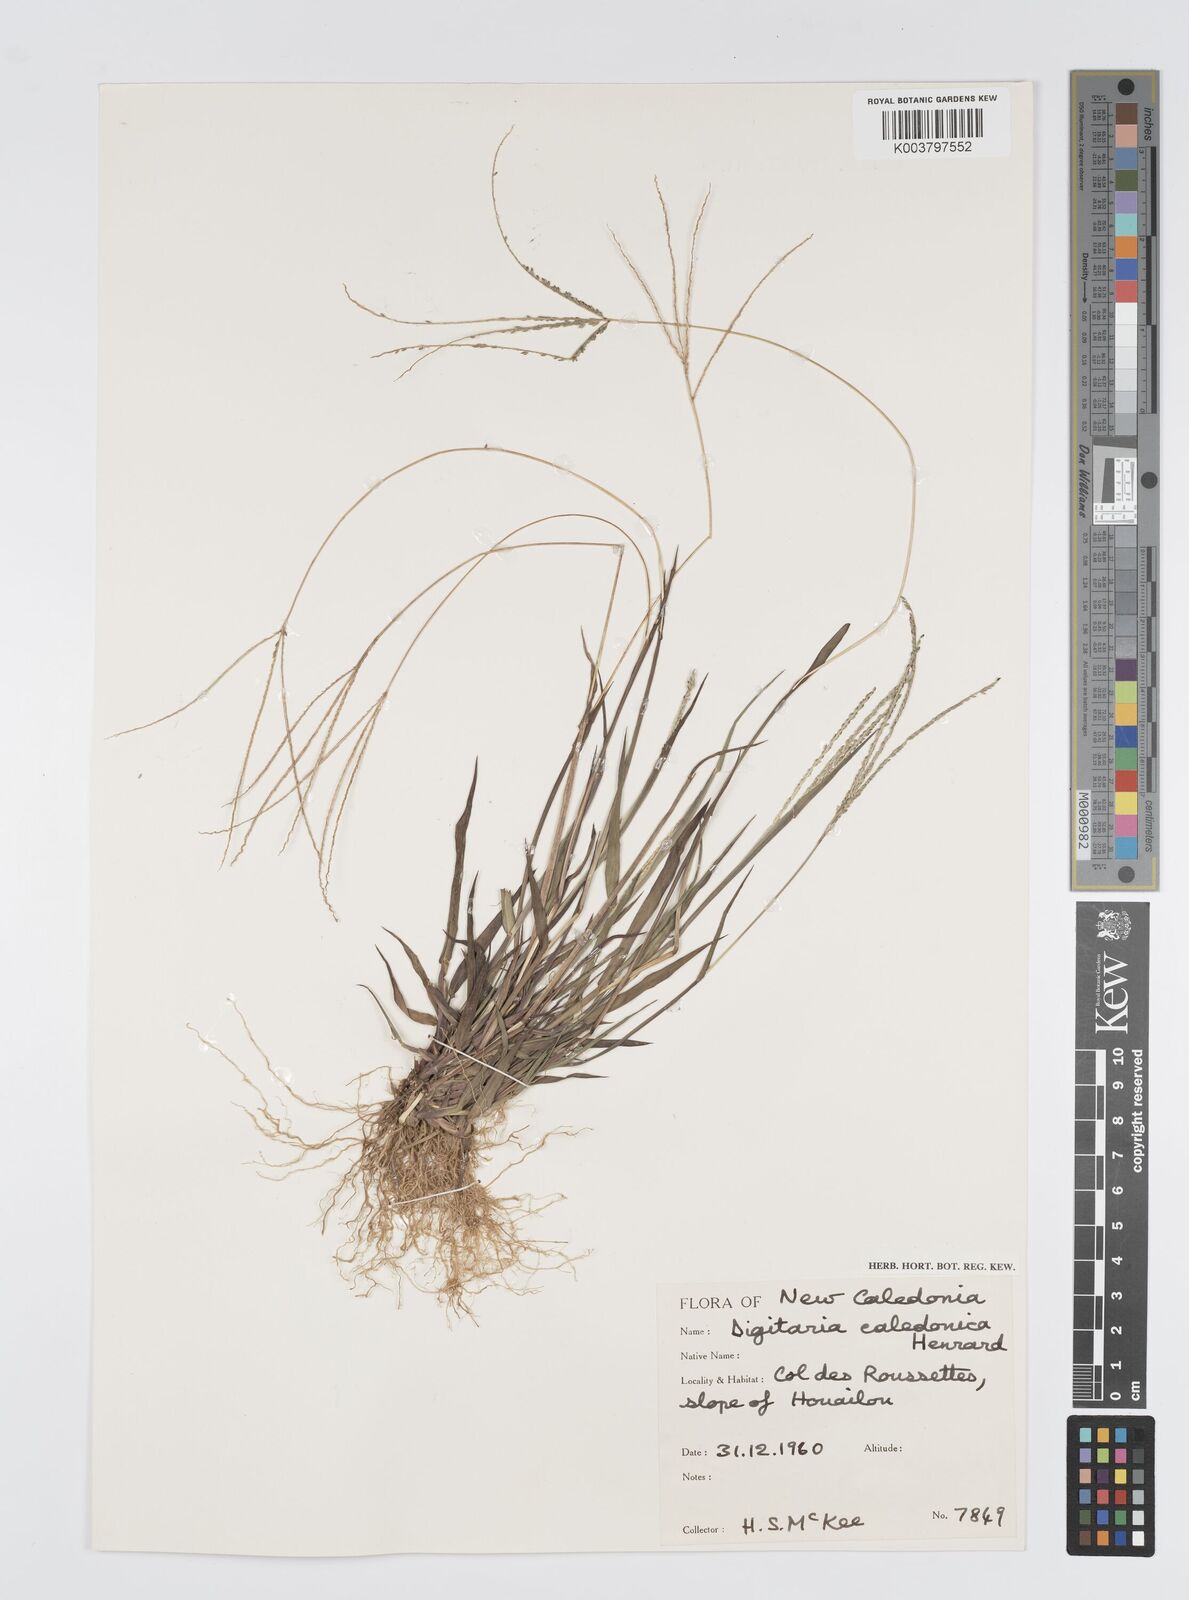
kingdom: Plantae
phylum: Tracheophyta
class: Liliopsida
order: Poales
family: Poaceae
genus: Digitaria
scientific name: Digitaria violascens
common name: Violet crabgrass
